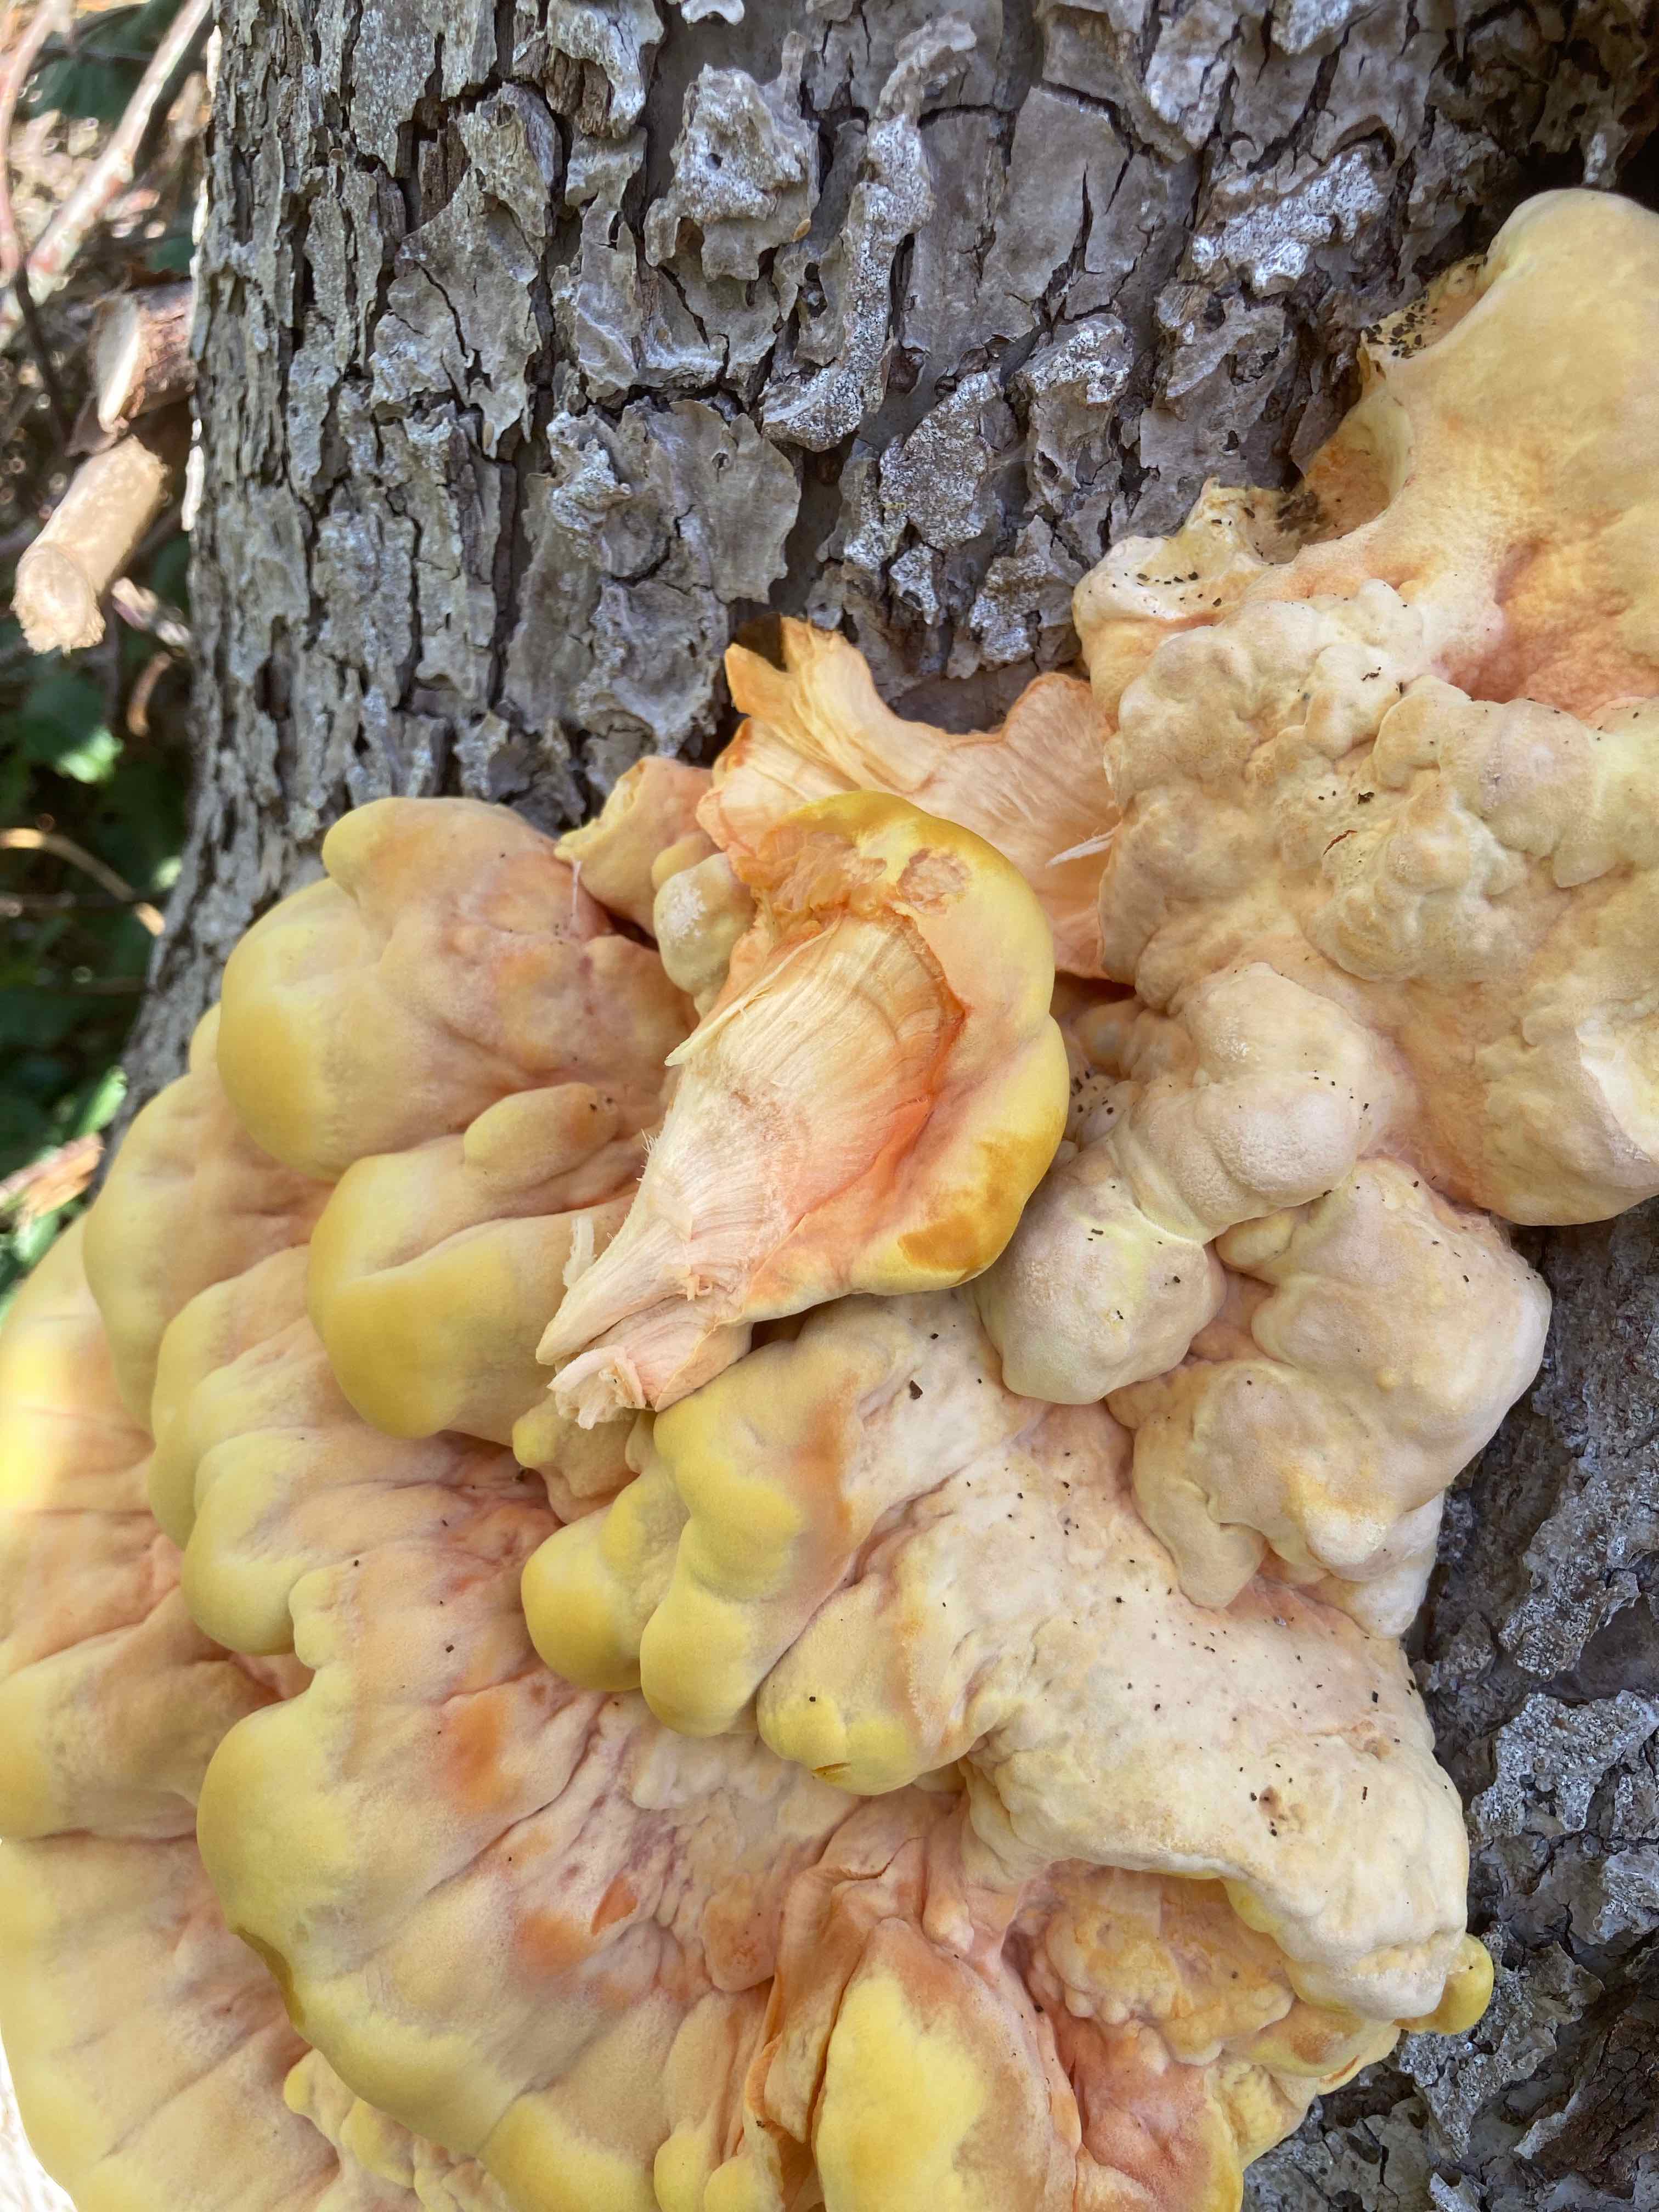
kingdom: Fungi
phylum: Basidiomycota
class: Agaricomycetes
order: Polyporales
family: Laetiporaceae
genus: Laetiporus
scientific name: Laetiporus sulphureus
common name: svovlporesvamp
